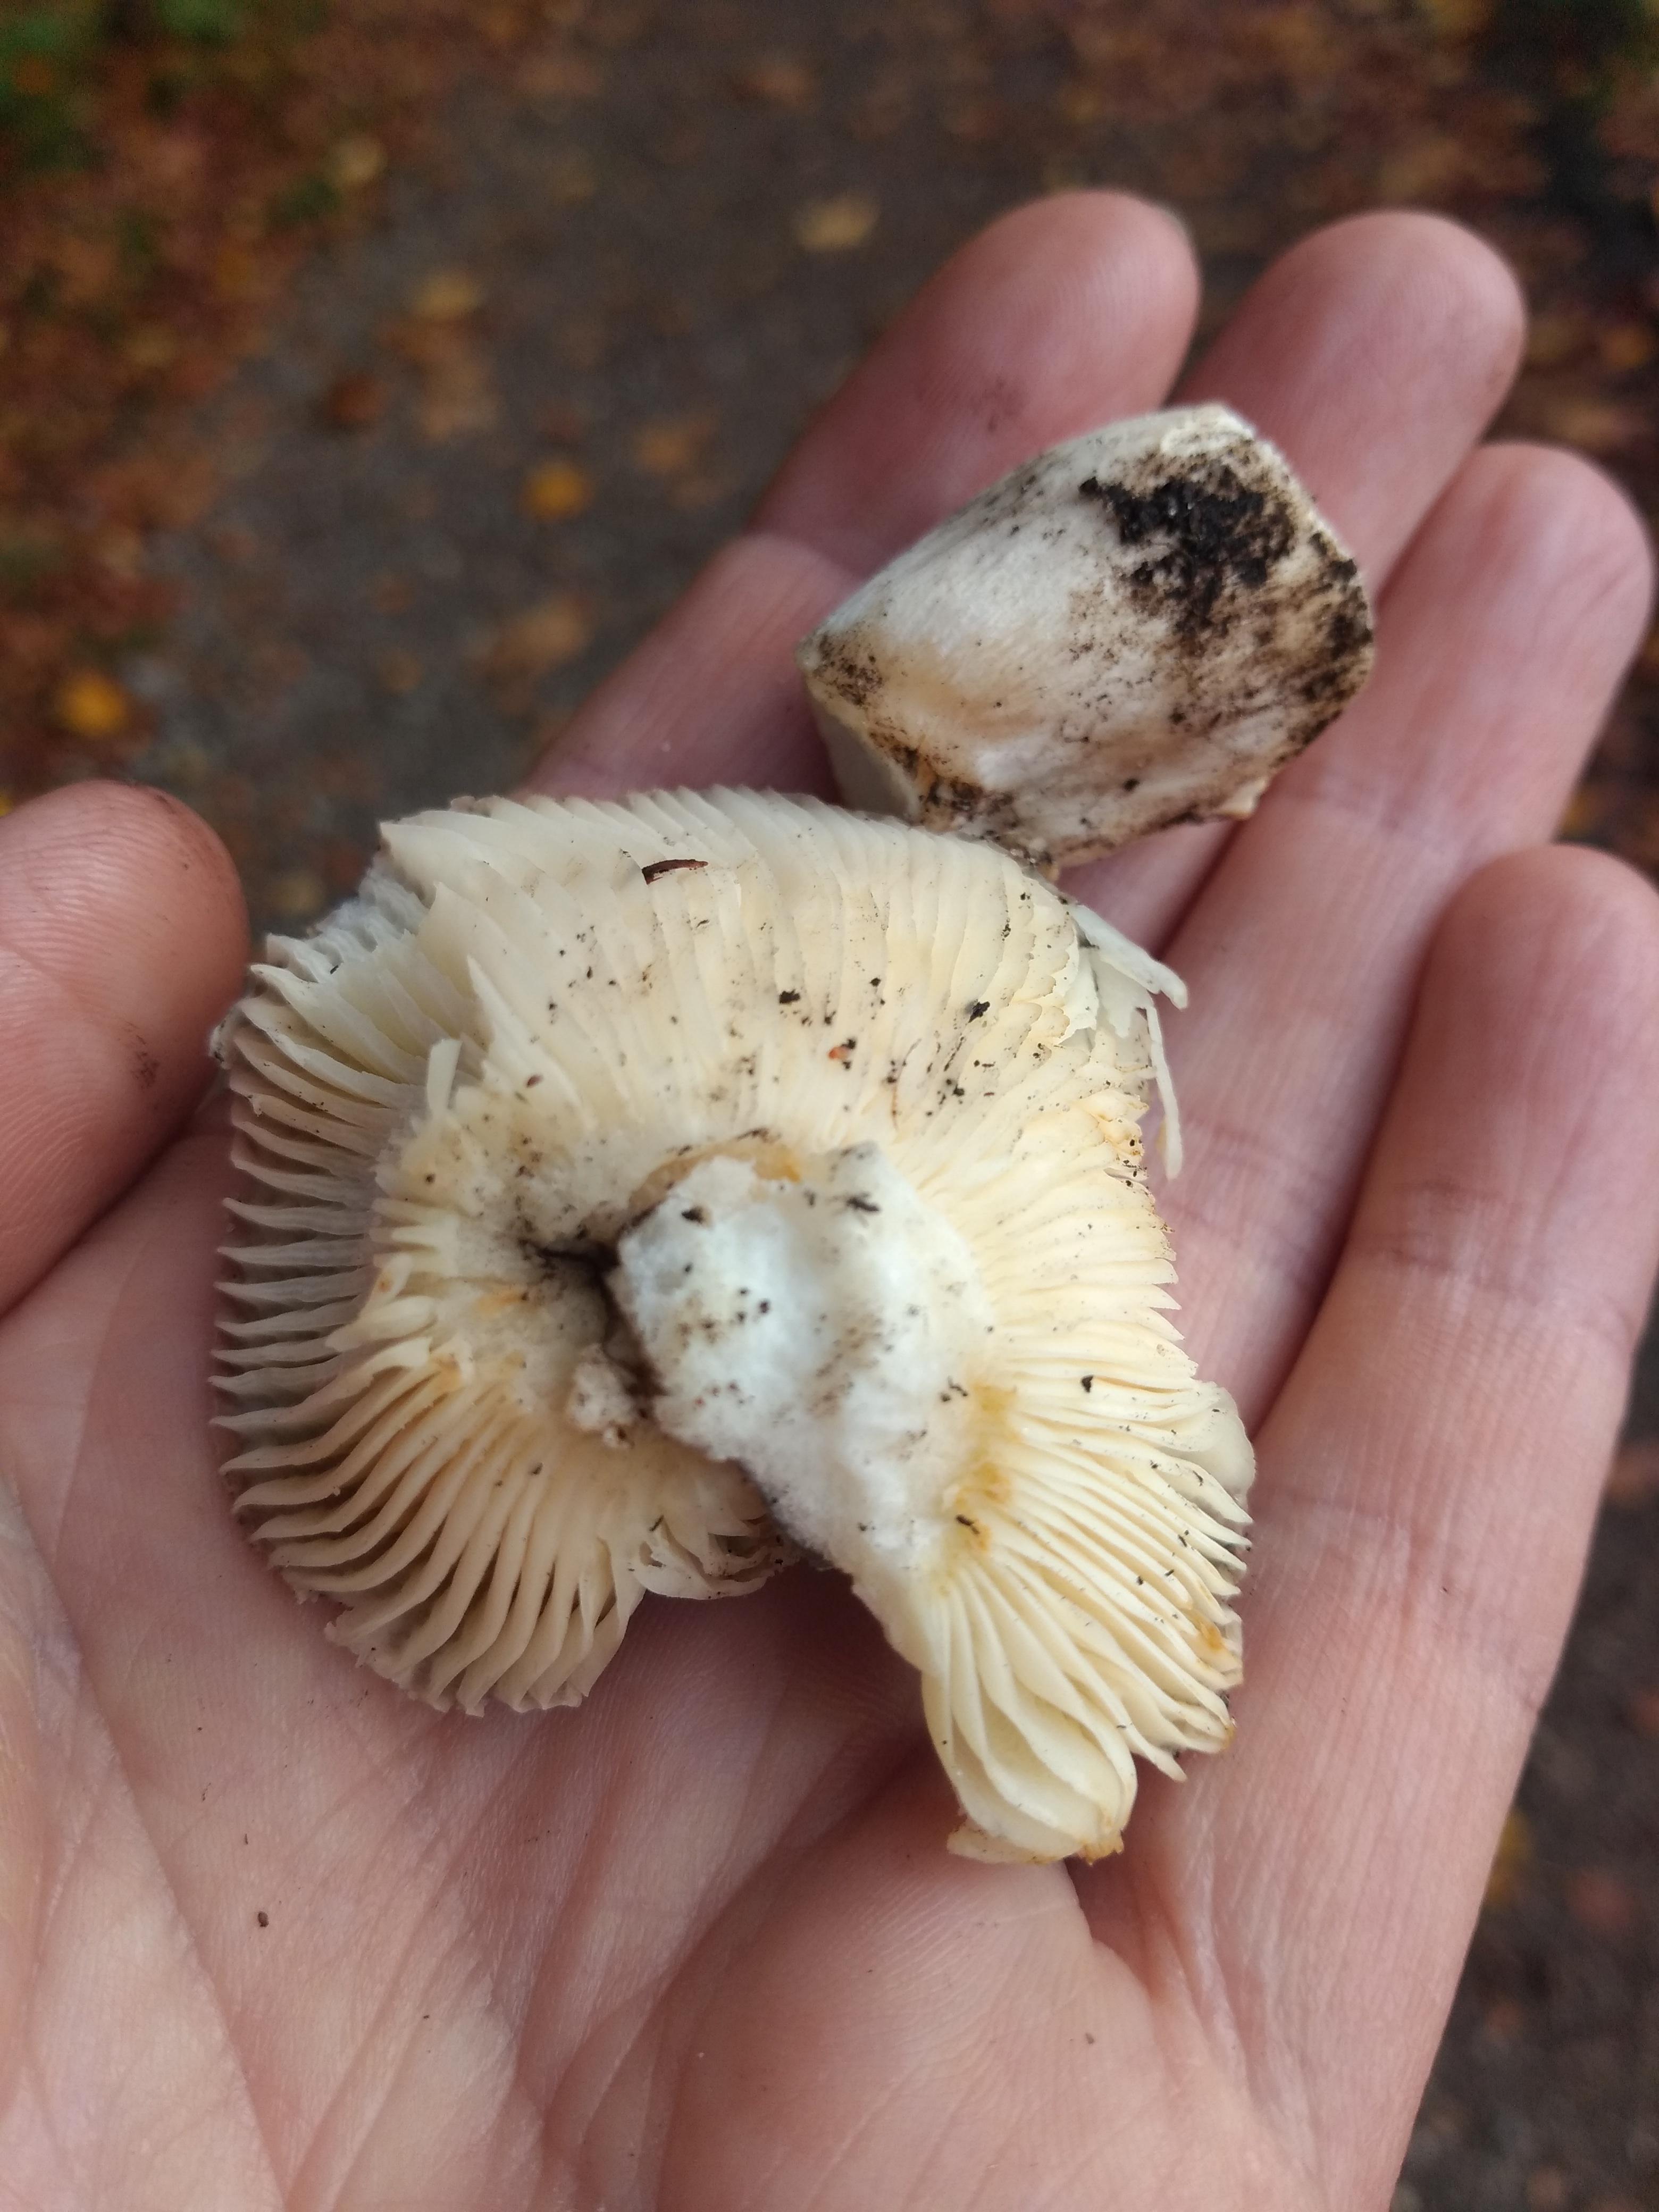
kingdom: Fungi
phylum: Basidiomycota
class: Agaricomycetes
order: Russulales
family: Russulaceae
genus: Russula
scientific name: Russula
